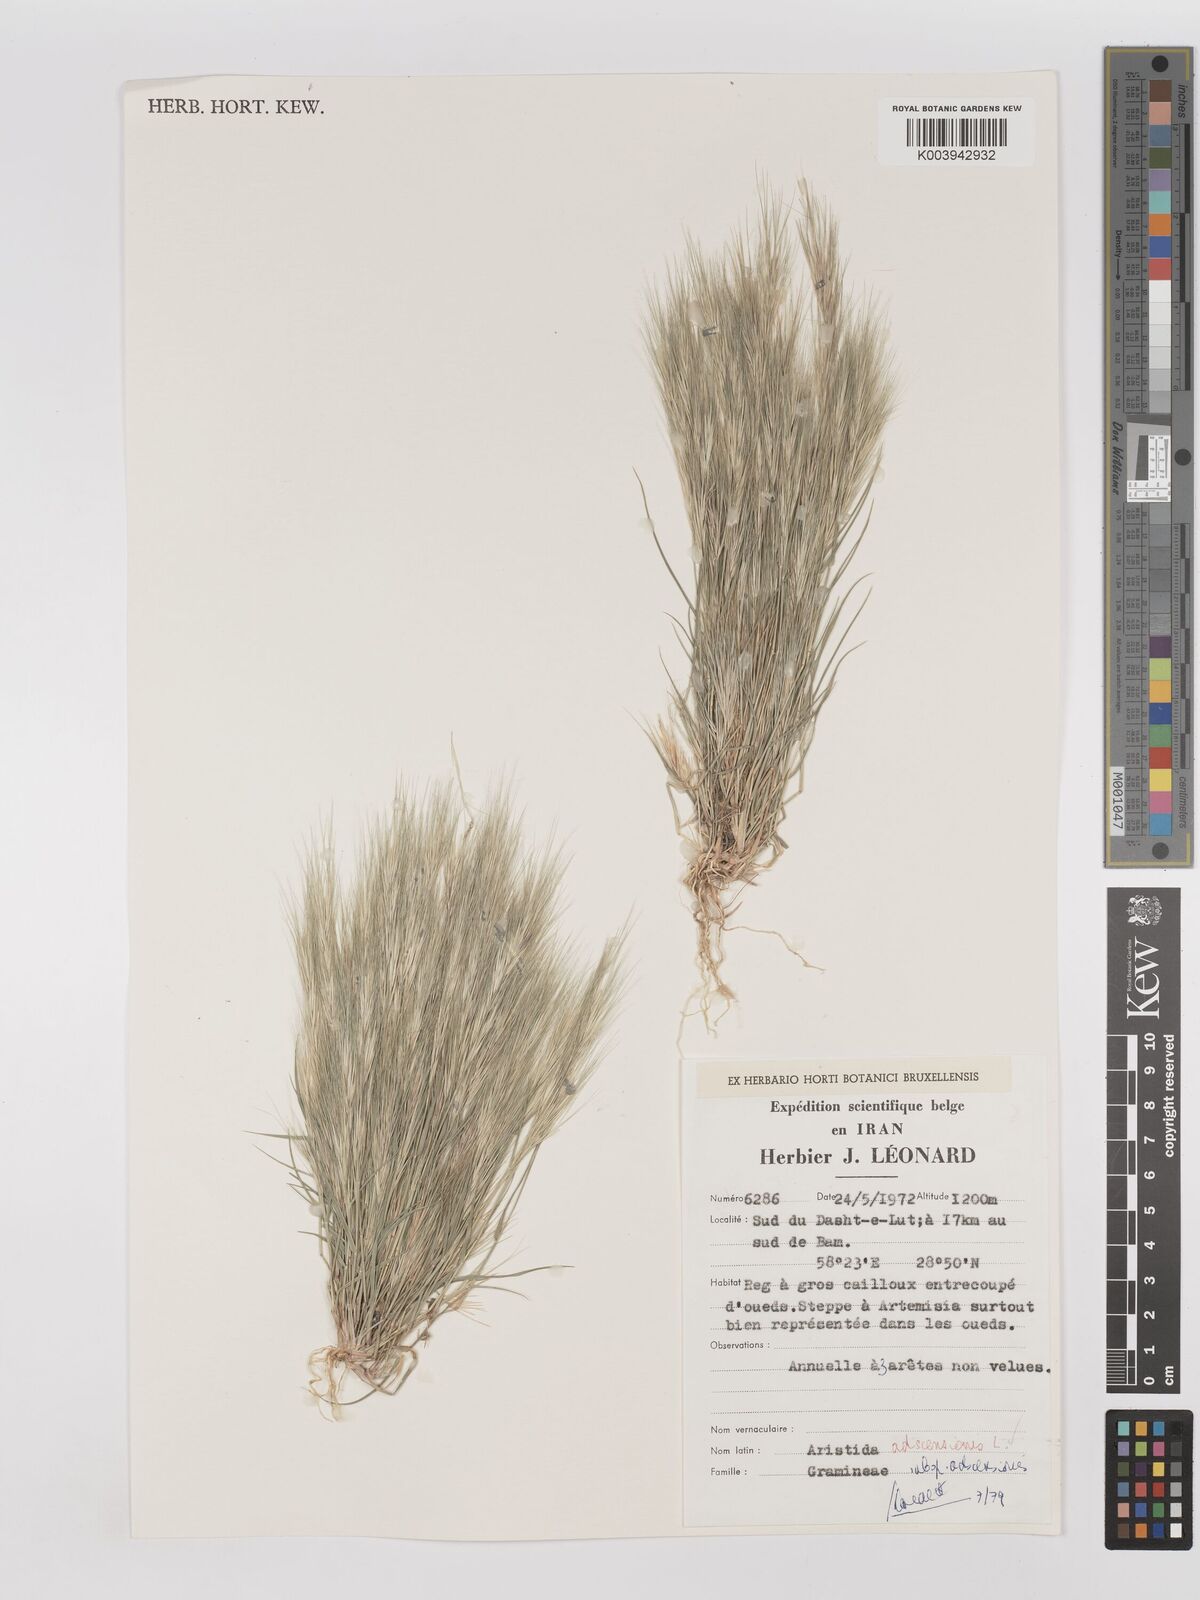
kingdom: Plantae
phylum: Tracheophyta
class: Liliopsida
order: Poales
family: Poaceae
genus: Aristida
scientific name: Aristida adscensionis
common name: Sixweeks threeawn
